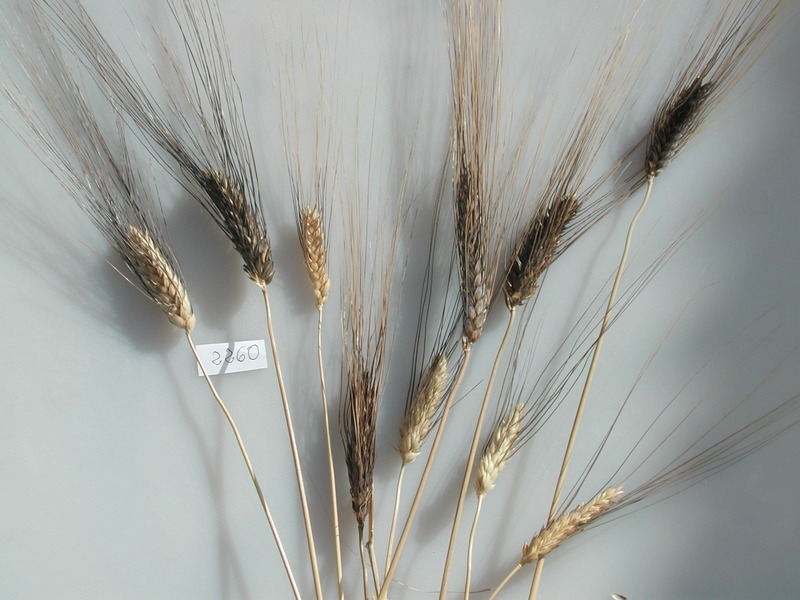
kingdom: Plantae
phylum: Tracheophyta
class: Liliopsida
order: Poales
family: Poaceae
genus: Triticum
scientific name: Triticum turgidum
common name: Wheat
